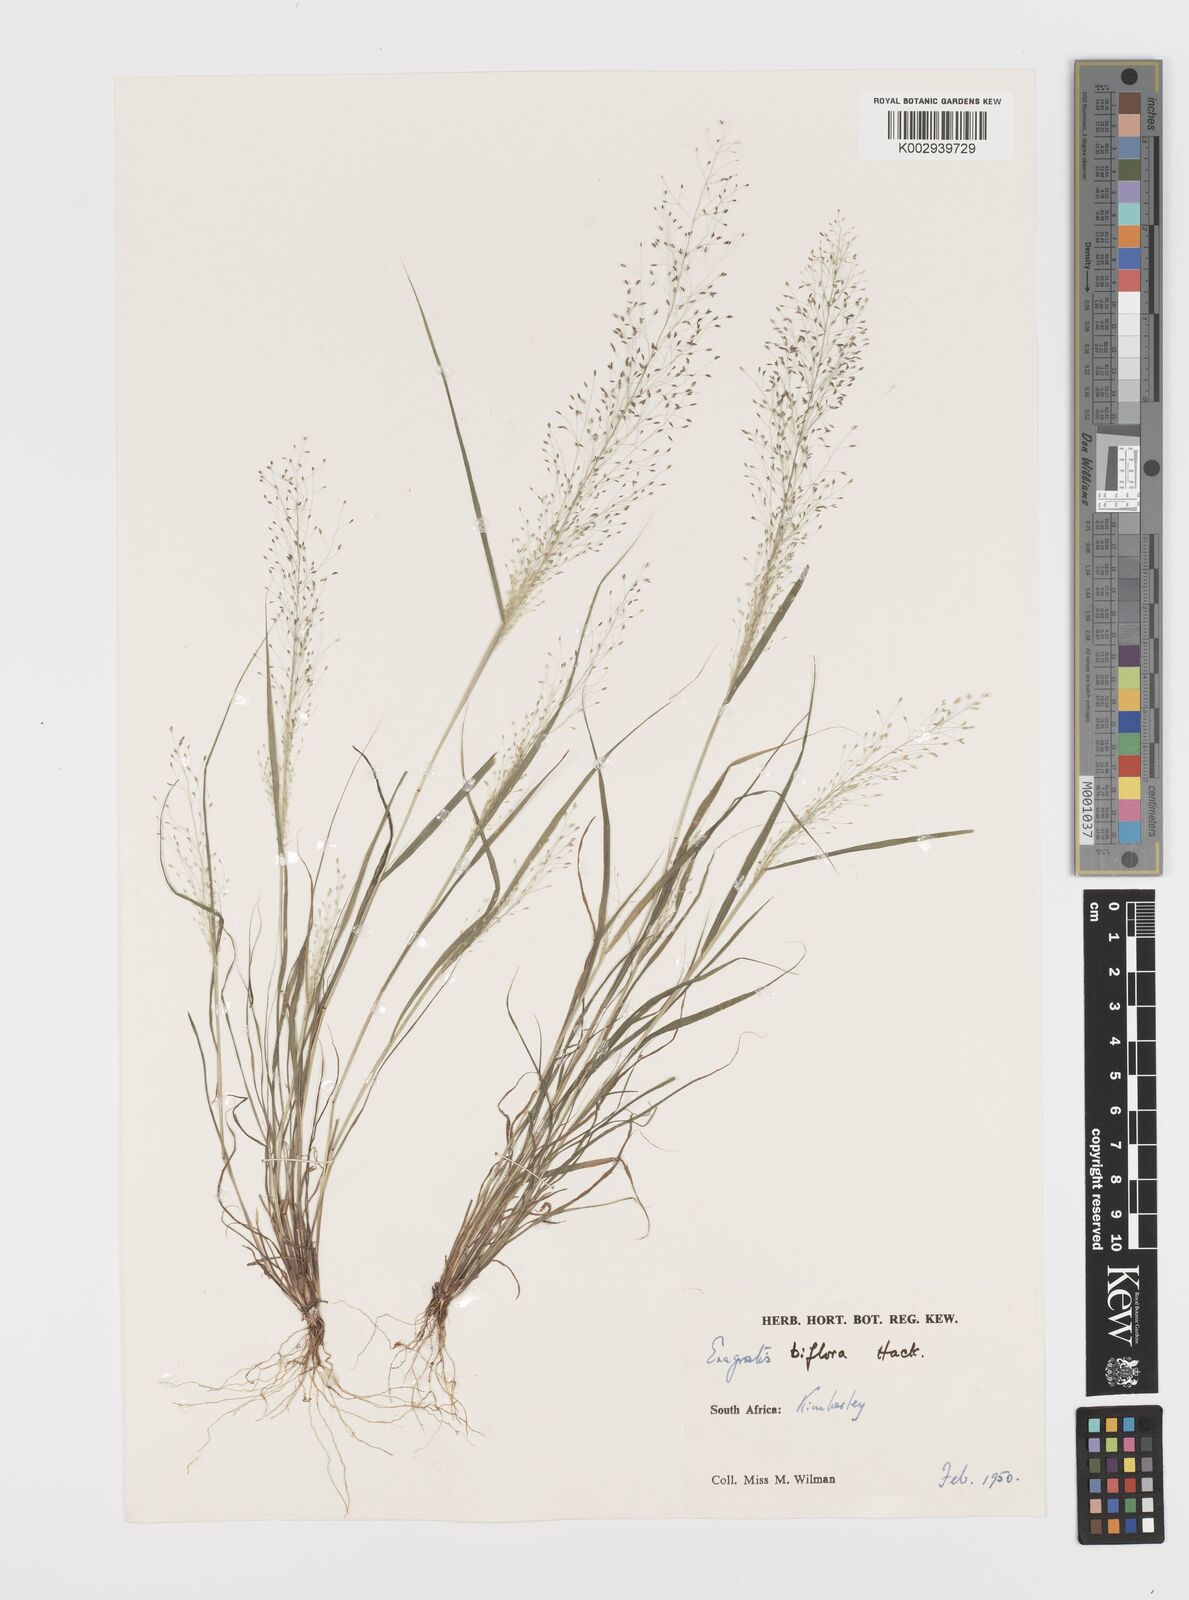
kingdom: Plantae
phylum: Tracheophyta
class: Liliopsida
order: Poales
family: Poaceae
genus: Eragrostis
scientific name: Eragrostis biflora
